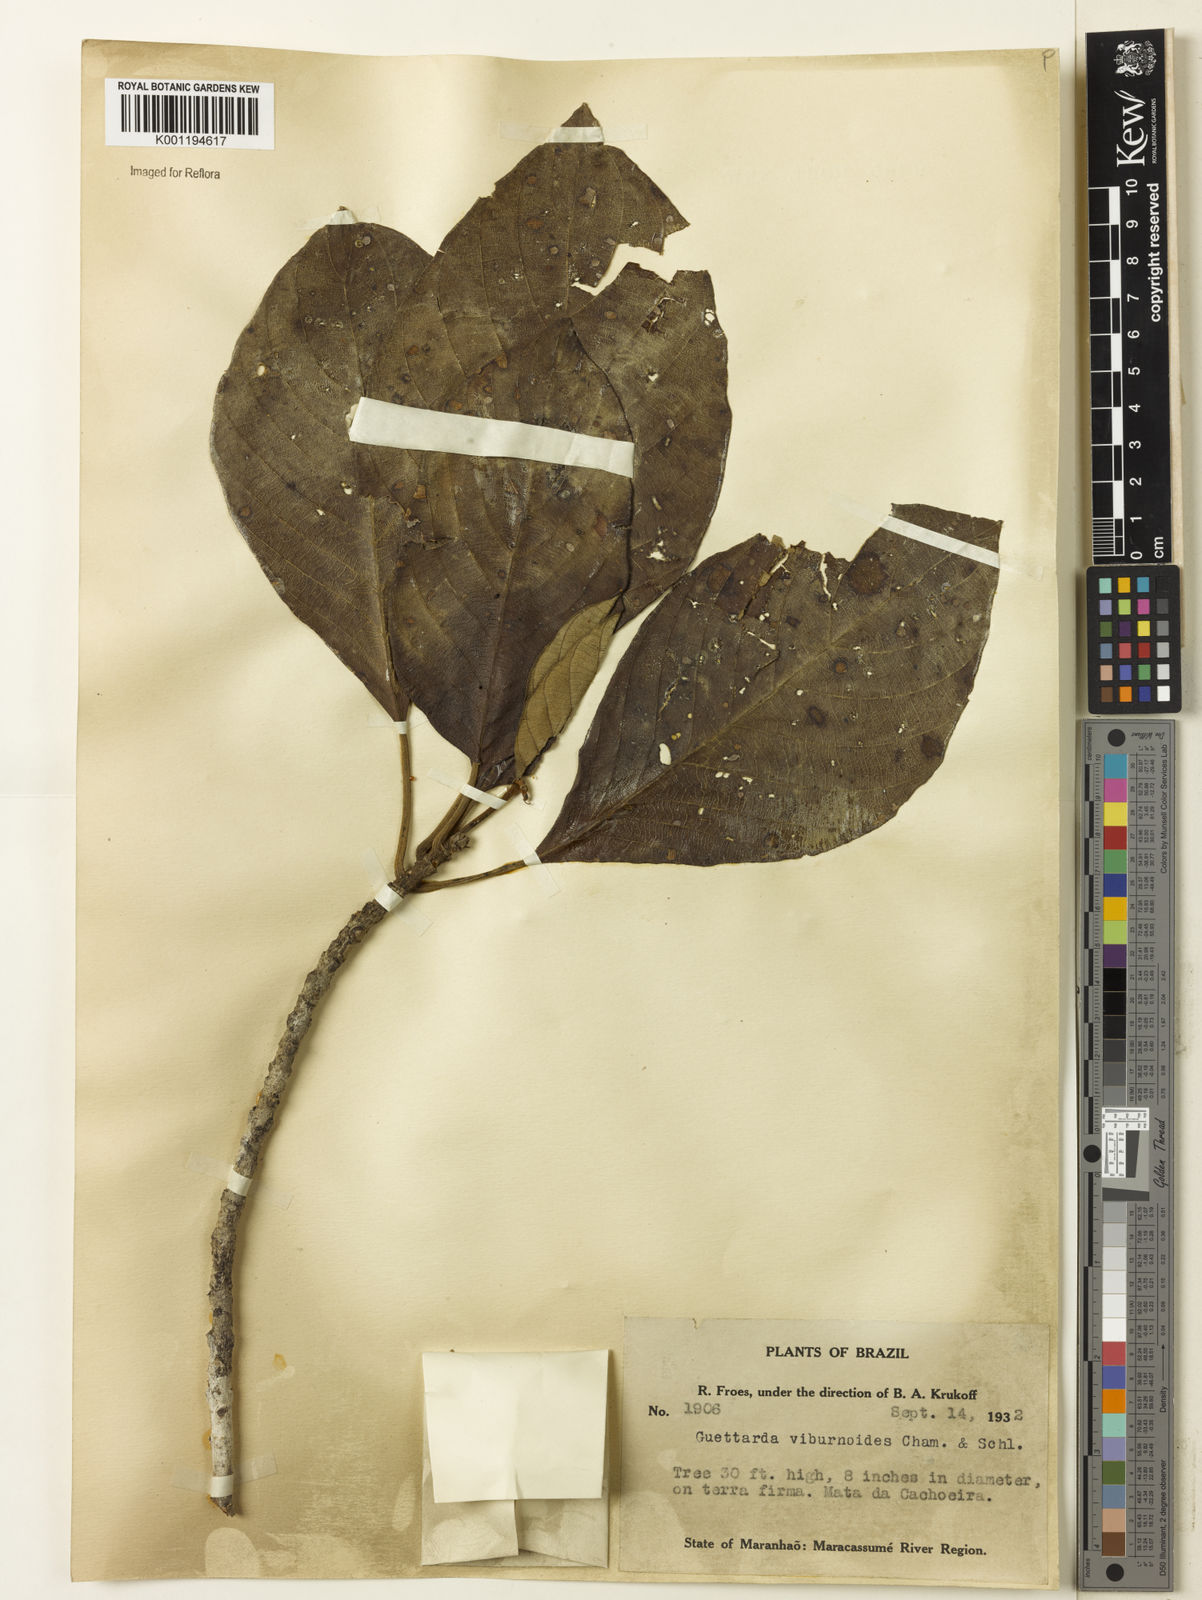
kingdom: Plantae
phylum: Tracheophyta
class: Magnoliopsida
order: Gentianales
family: Rubiaceae
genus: Guettarda
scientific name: Guettarda viburnoides
